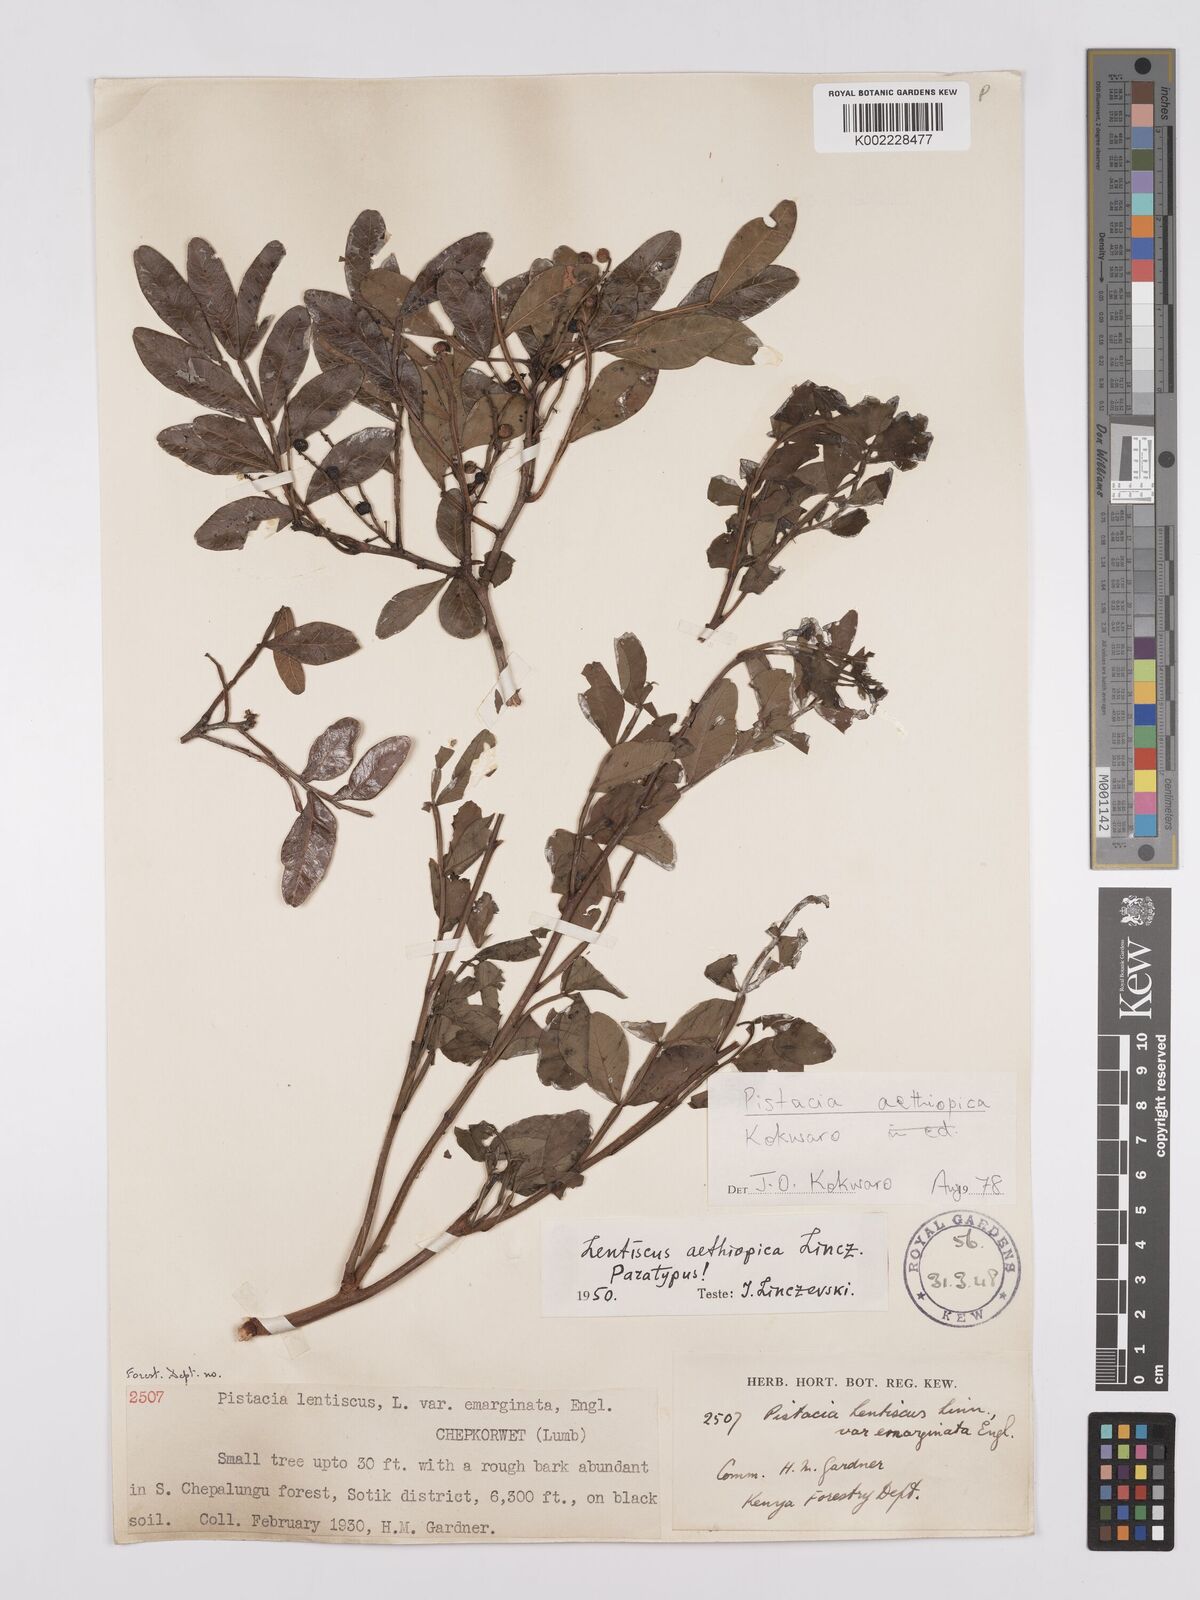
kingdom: Plantae
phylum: Tracheophyta
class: Magnoliopsida
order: Sapindales
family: Anacardiaceae
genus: Pistacia
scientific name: Pistacia lentiscus
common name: Lentisk
